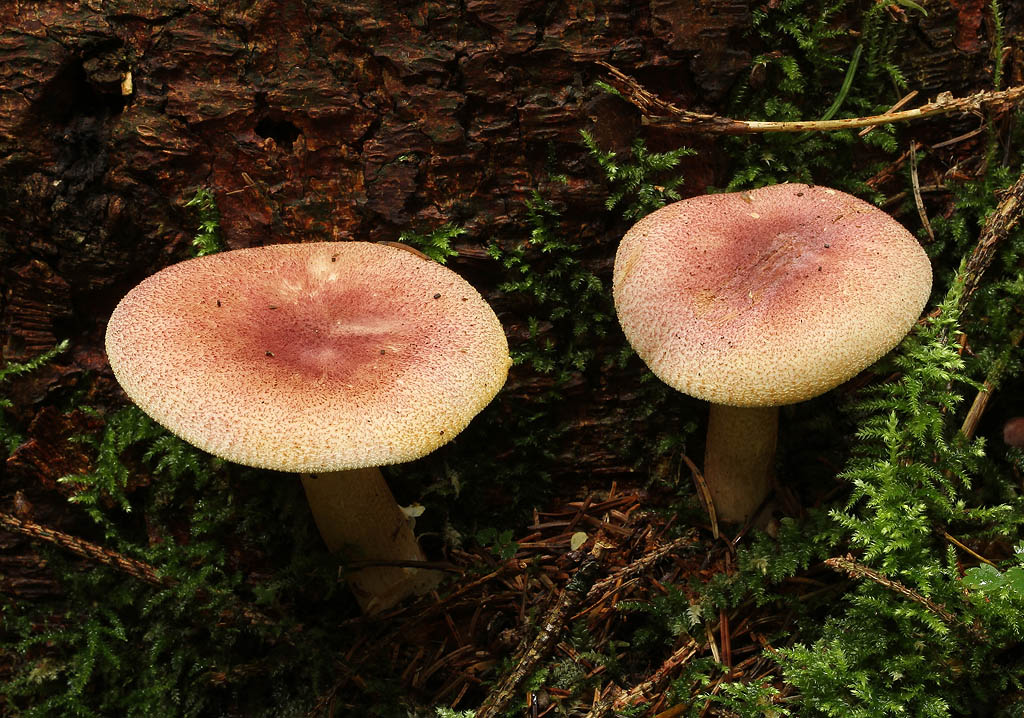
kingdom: Fungi
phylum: Basidiomycota
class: Agaricomycetes
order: Agaricales
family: Tricholomataceae
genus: Tricholomopsis
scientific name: Tricholomopsis rutilans
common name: purpur-væbnerhat
